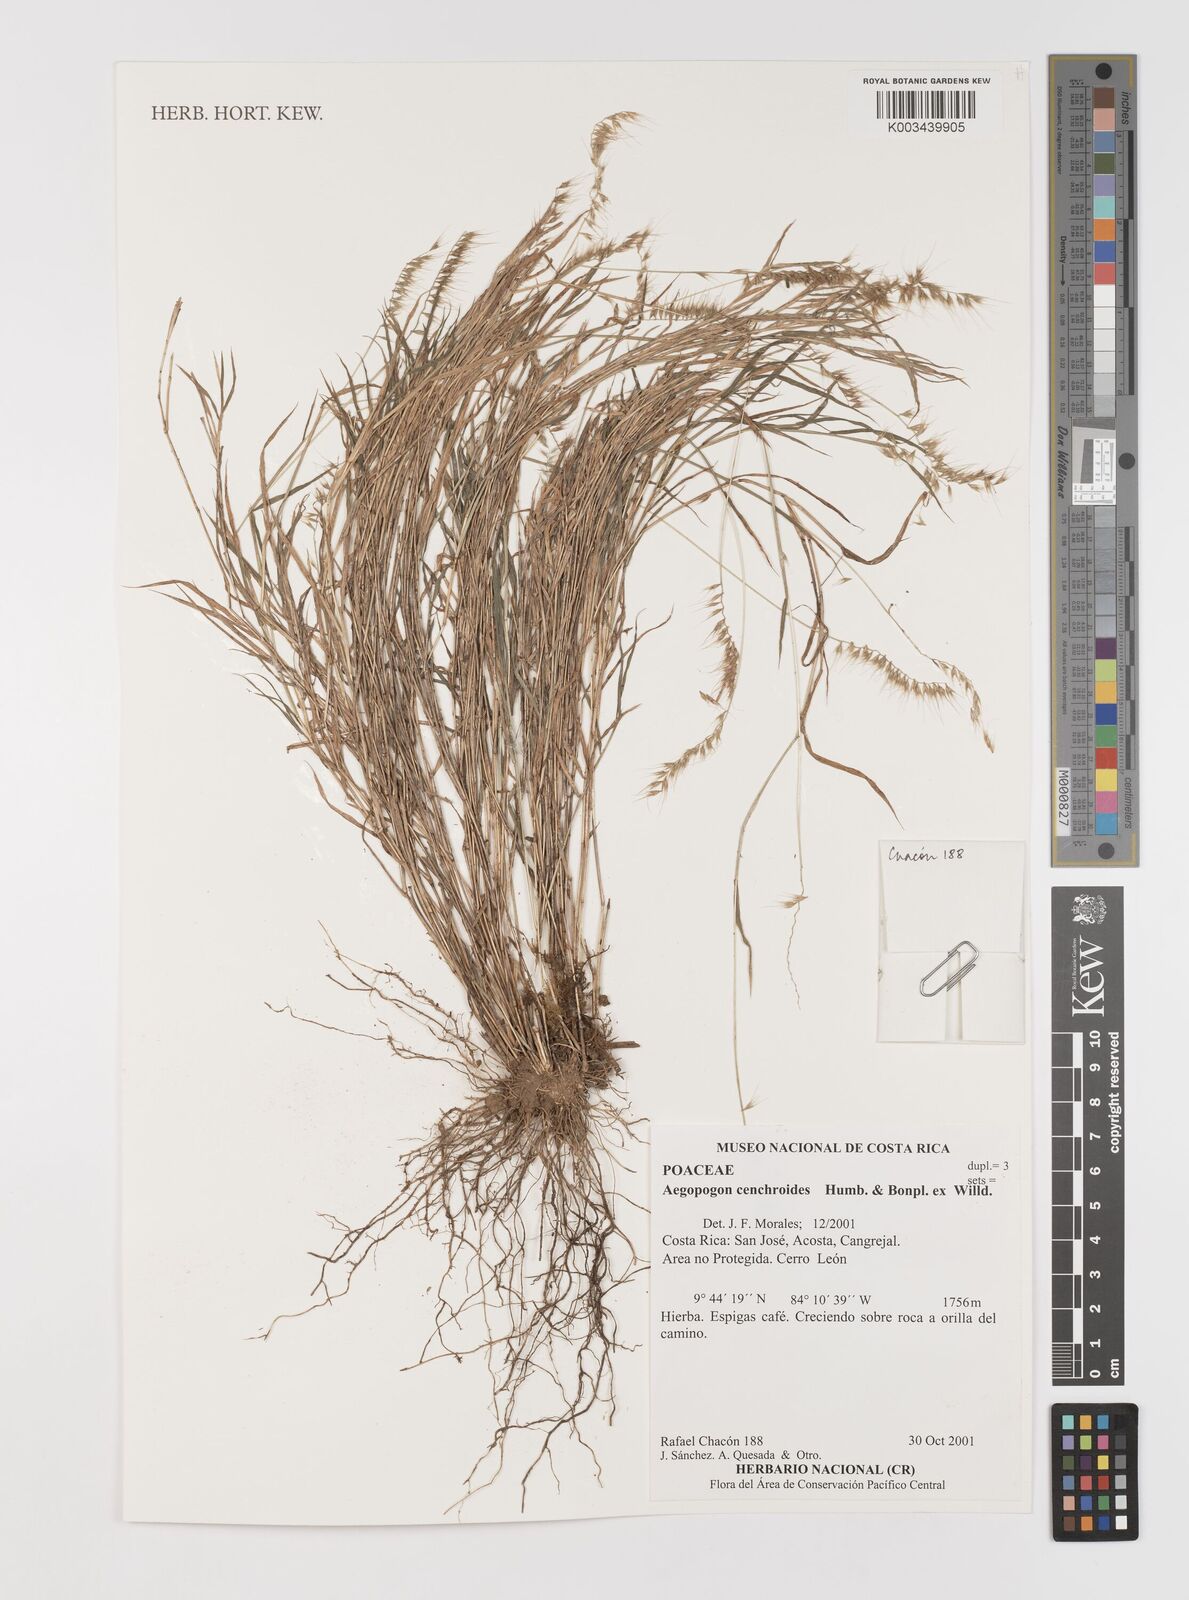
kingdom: Plantae
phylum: Tracheophyta
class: Liliopsida
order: Poales
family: Poaceae
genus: Muhlenbergia
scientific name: Muhlenbergia cenchroides
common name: Relaxgrass
